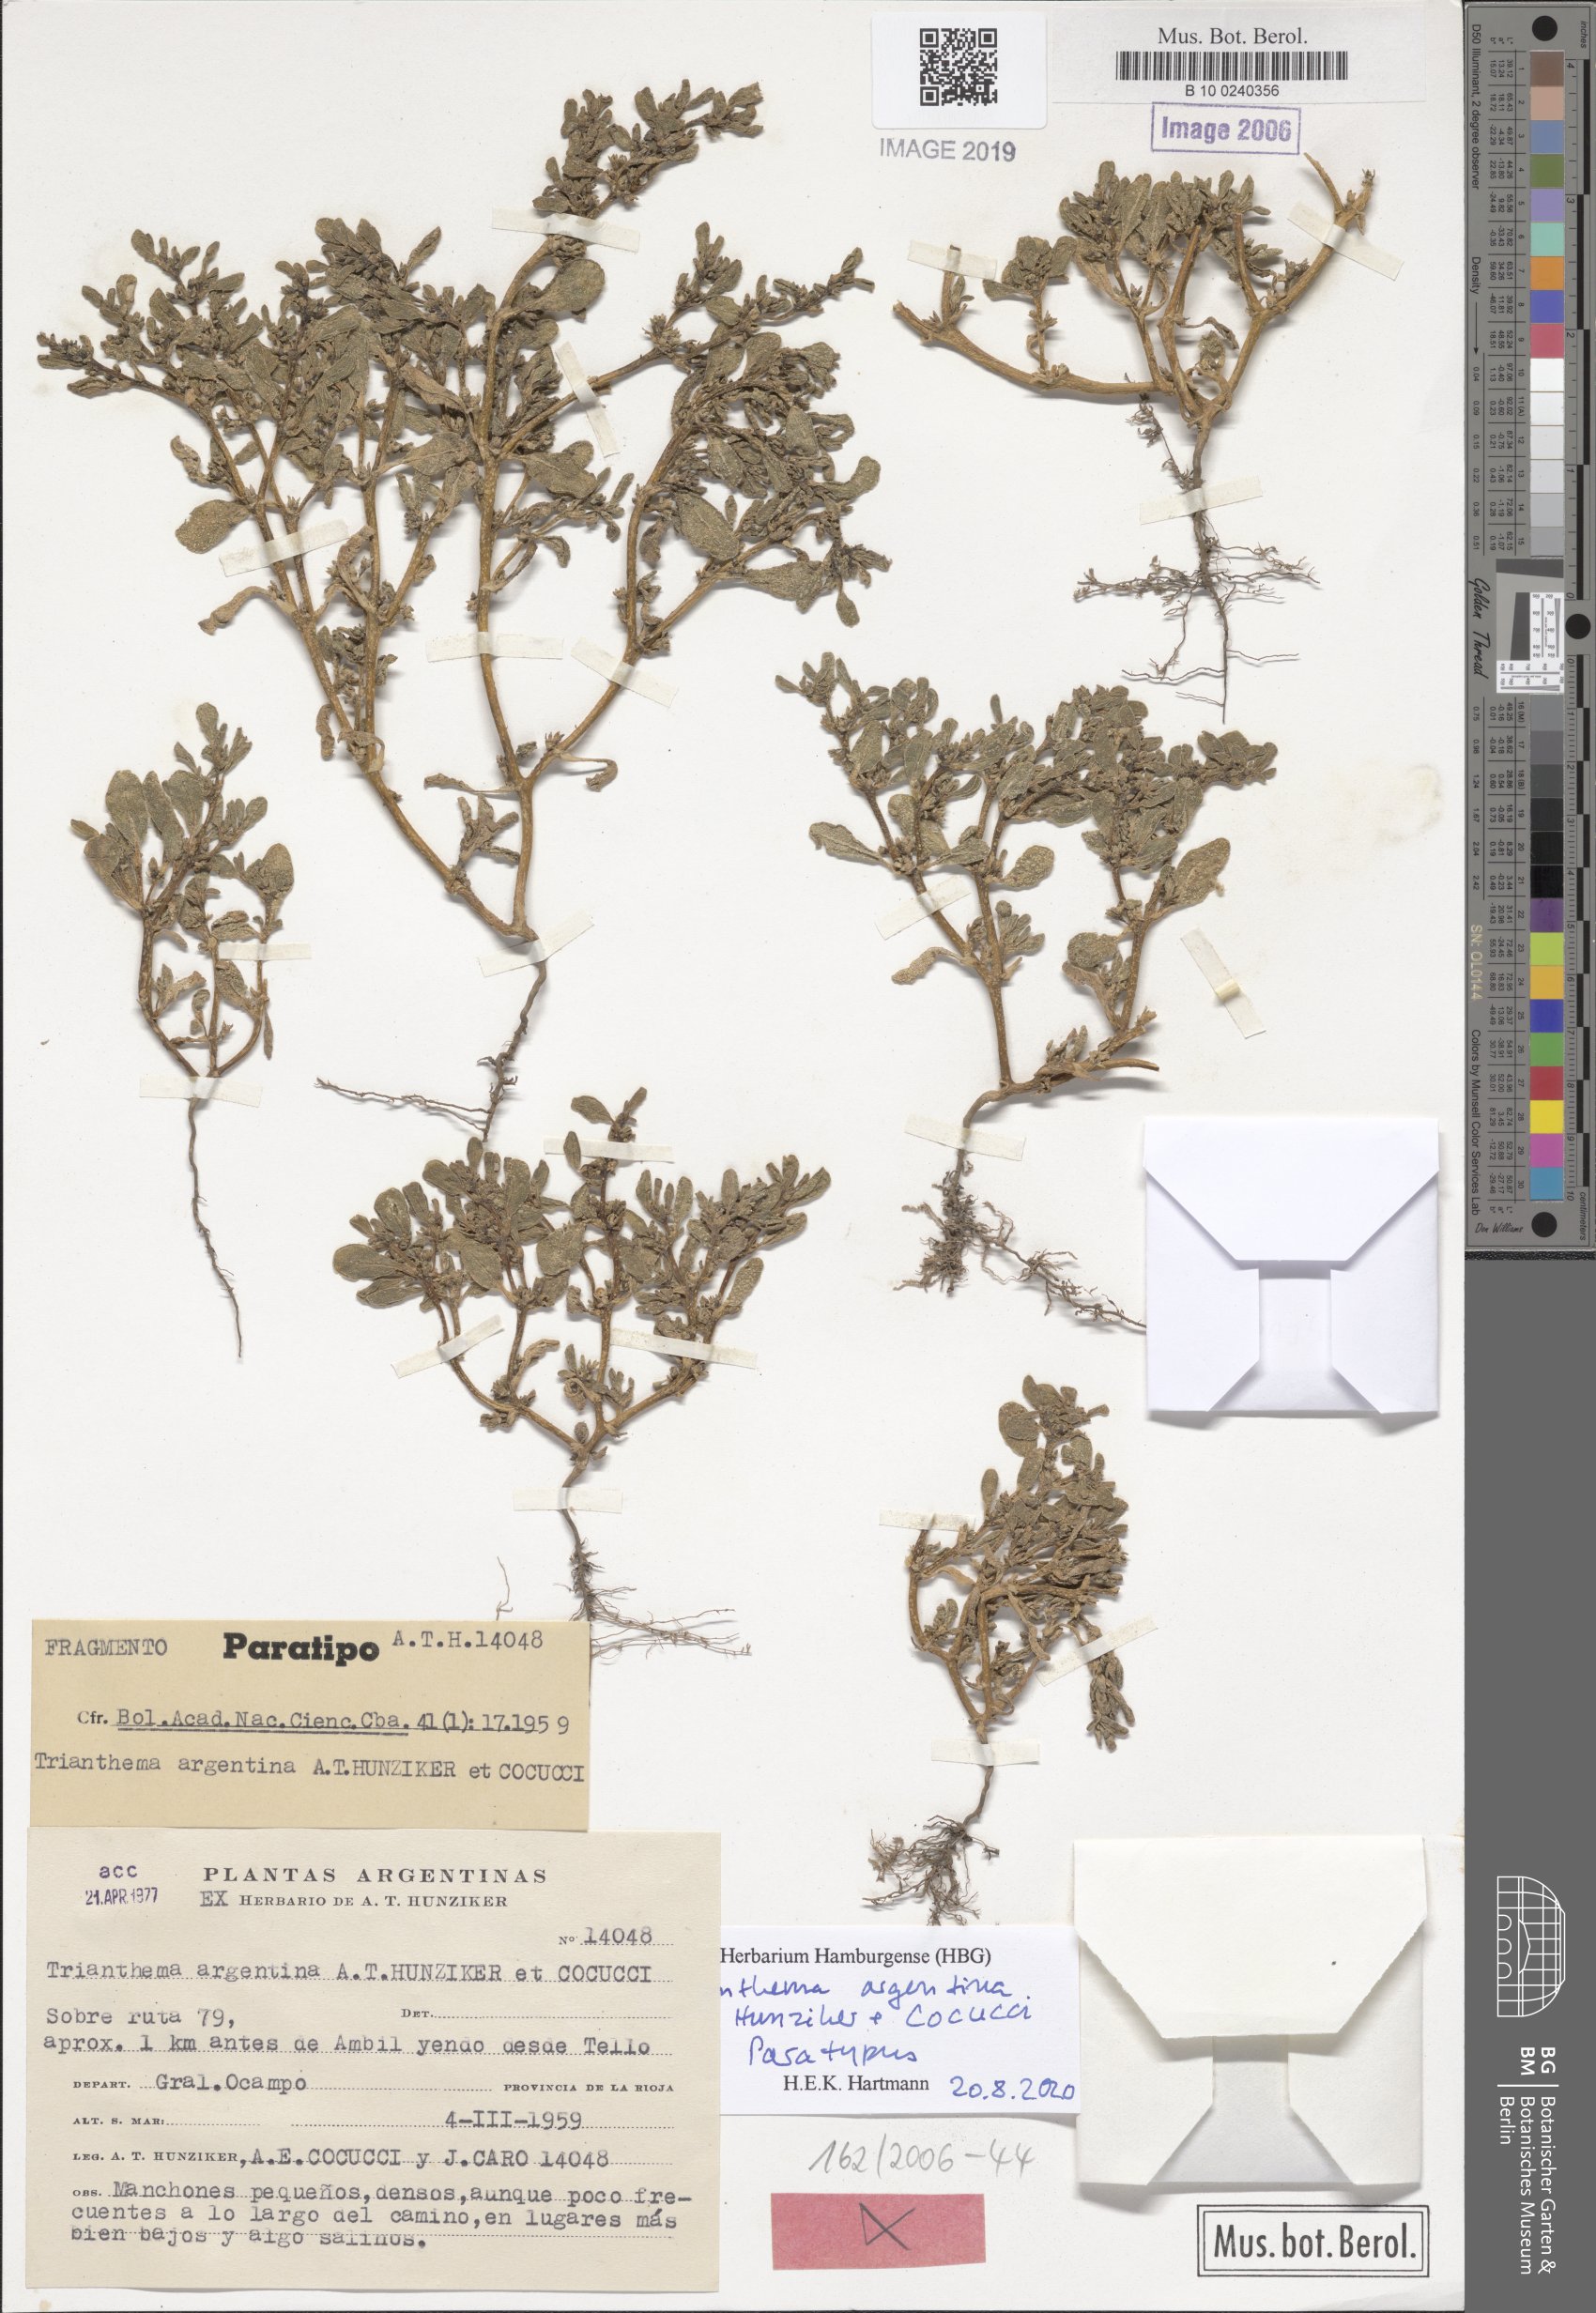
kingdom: Plantae
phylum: Tracheophyta
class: Magnoliopsida
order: Caryophyllales
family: Aizoaceae
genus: Trianthema
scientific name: Trianthema argentinum
